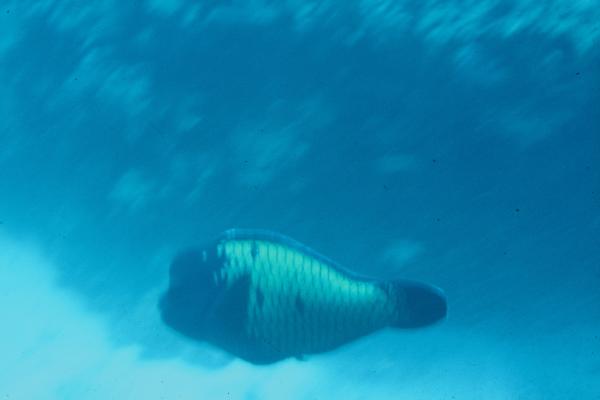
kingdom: Animalia
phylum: Chordata
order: Perciformes
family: Scaridae
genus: Chlorurus
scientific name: Chlorurus cyanescens
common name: Blue humphead parrotfish
